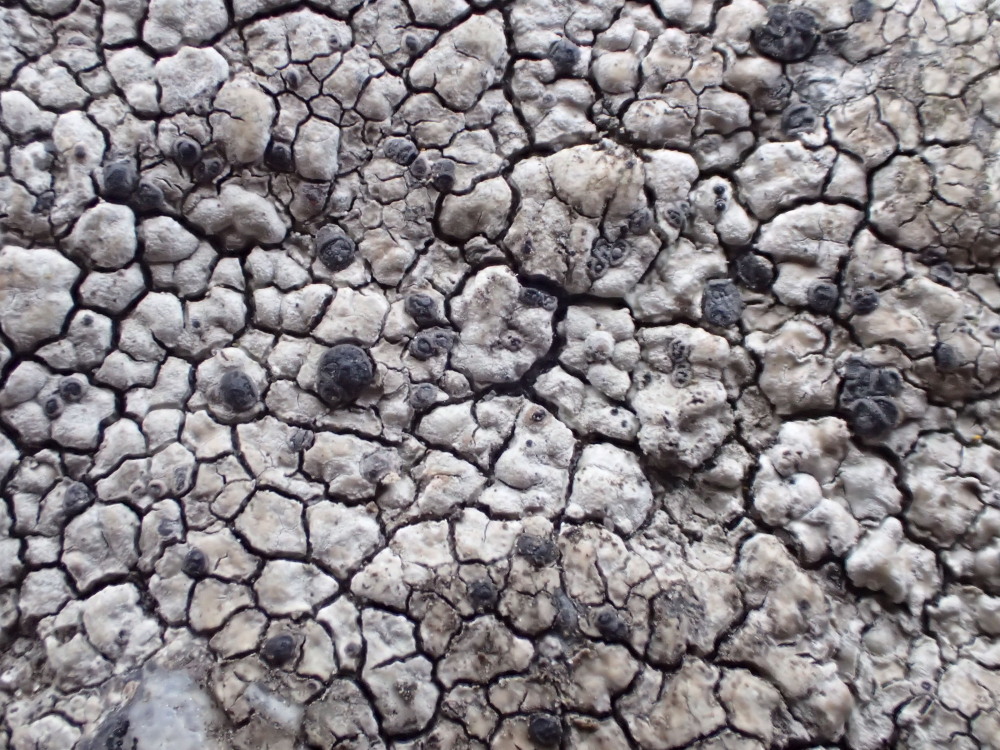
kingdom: Fungi
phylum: Ascomycota
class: Lecanoromycetes
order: Lecideales
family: Lecideaceae
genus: Lecidea
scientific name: Lecidea grisella
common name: grå skivelav
